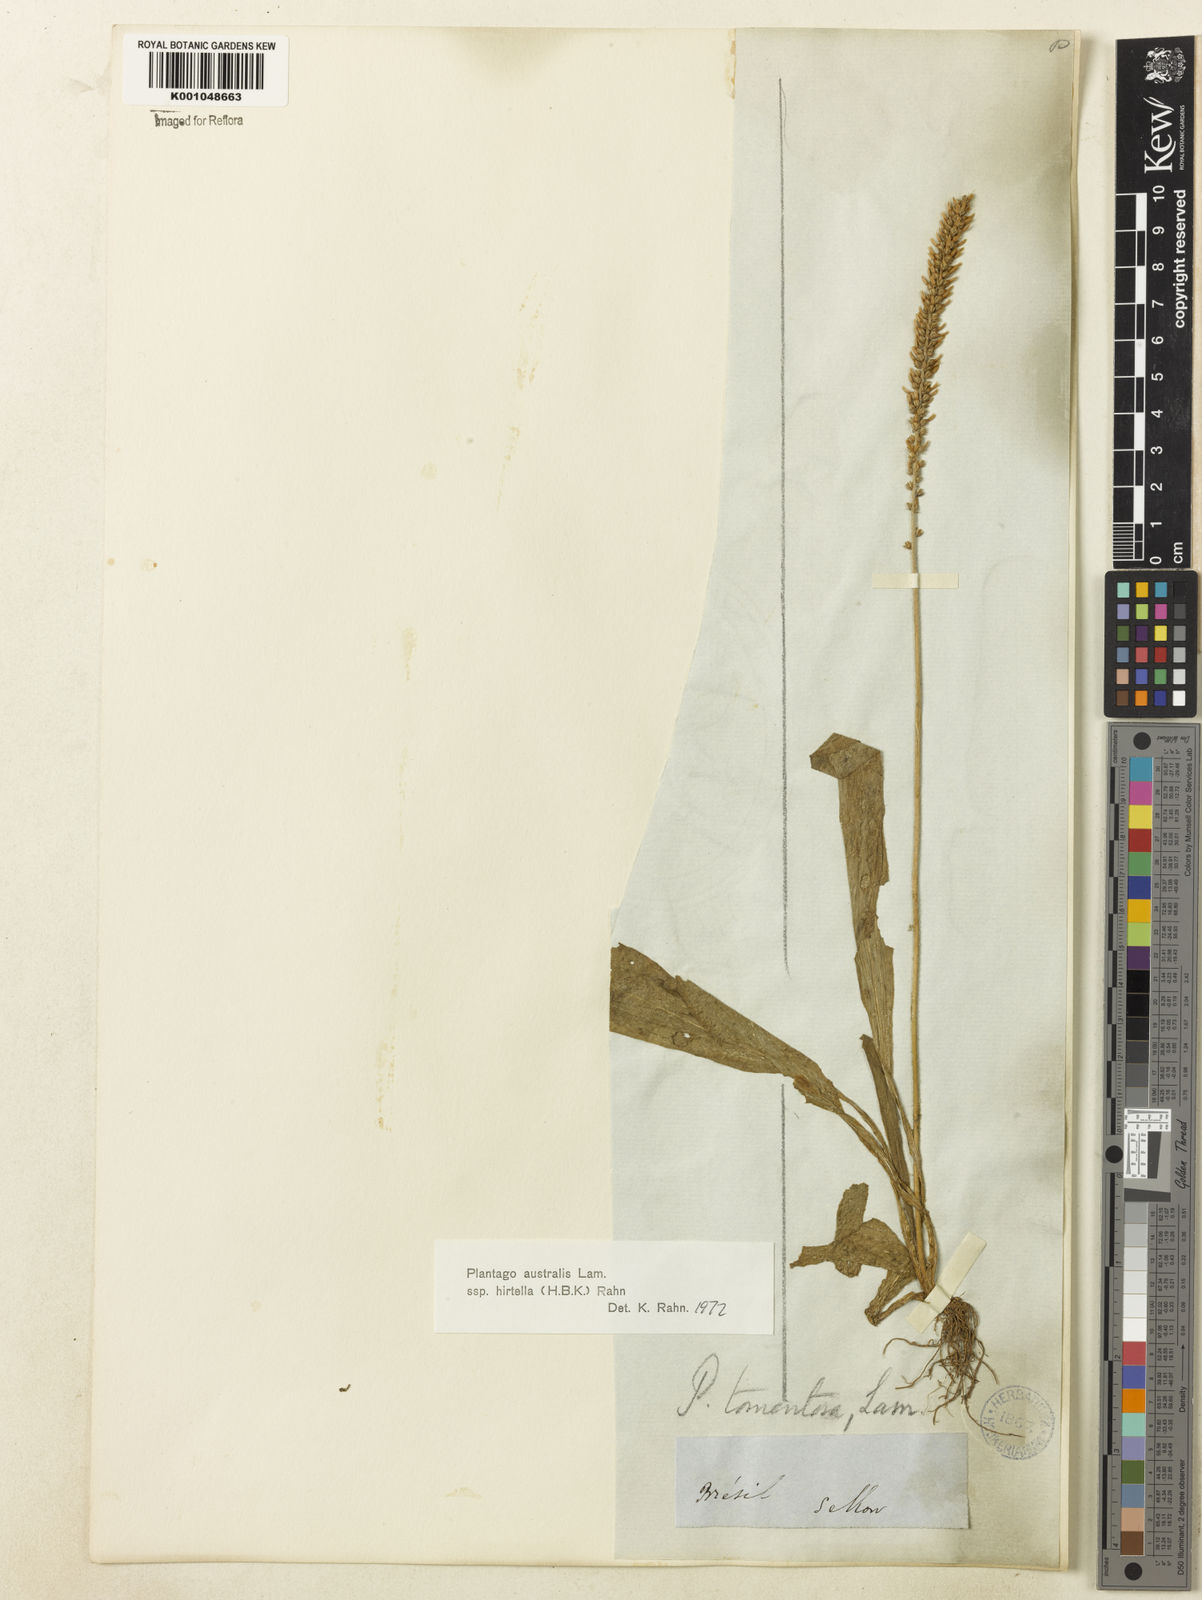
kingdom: Plantae
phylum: Tracheophyta
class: Magnoliopsida
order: Lamiales
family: Plantaginaceae
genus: Plantago
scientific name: Plantago australis
